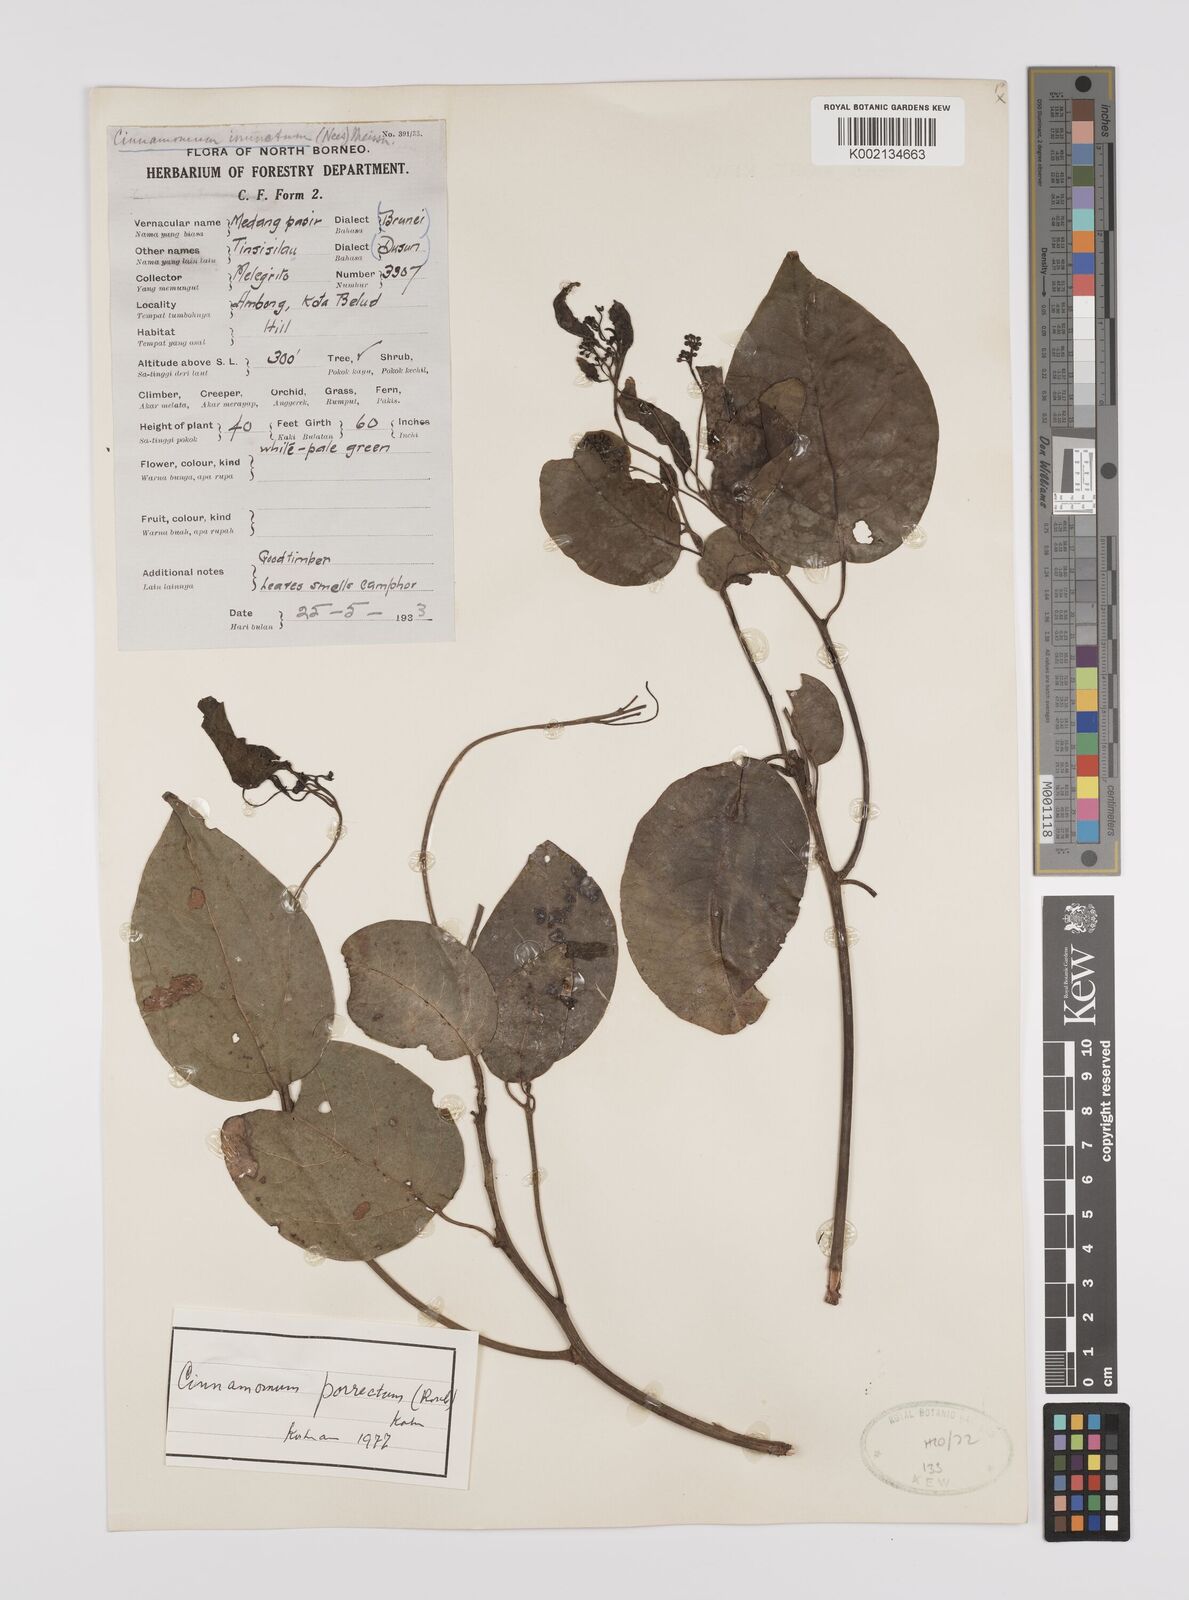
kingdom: Plantae
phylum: Tracheophyta
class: Magnoliopsida
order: Laurales
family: Lauraceae
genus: Cinnamomum
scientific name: Cinnamomum parthenoxylon
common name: Martaban camphor wood
